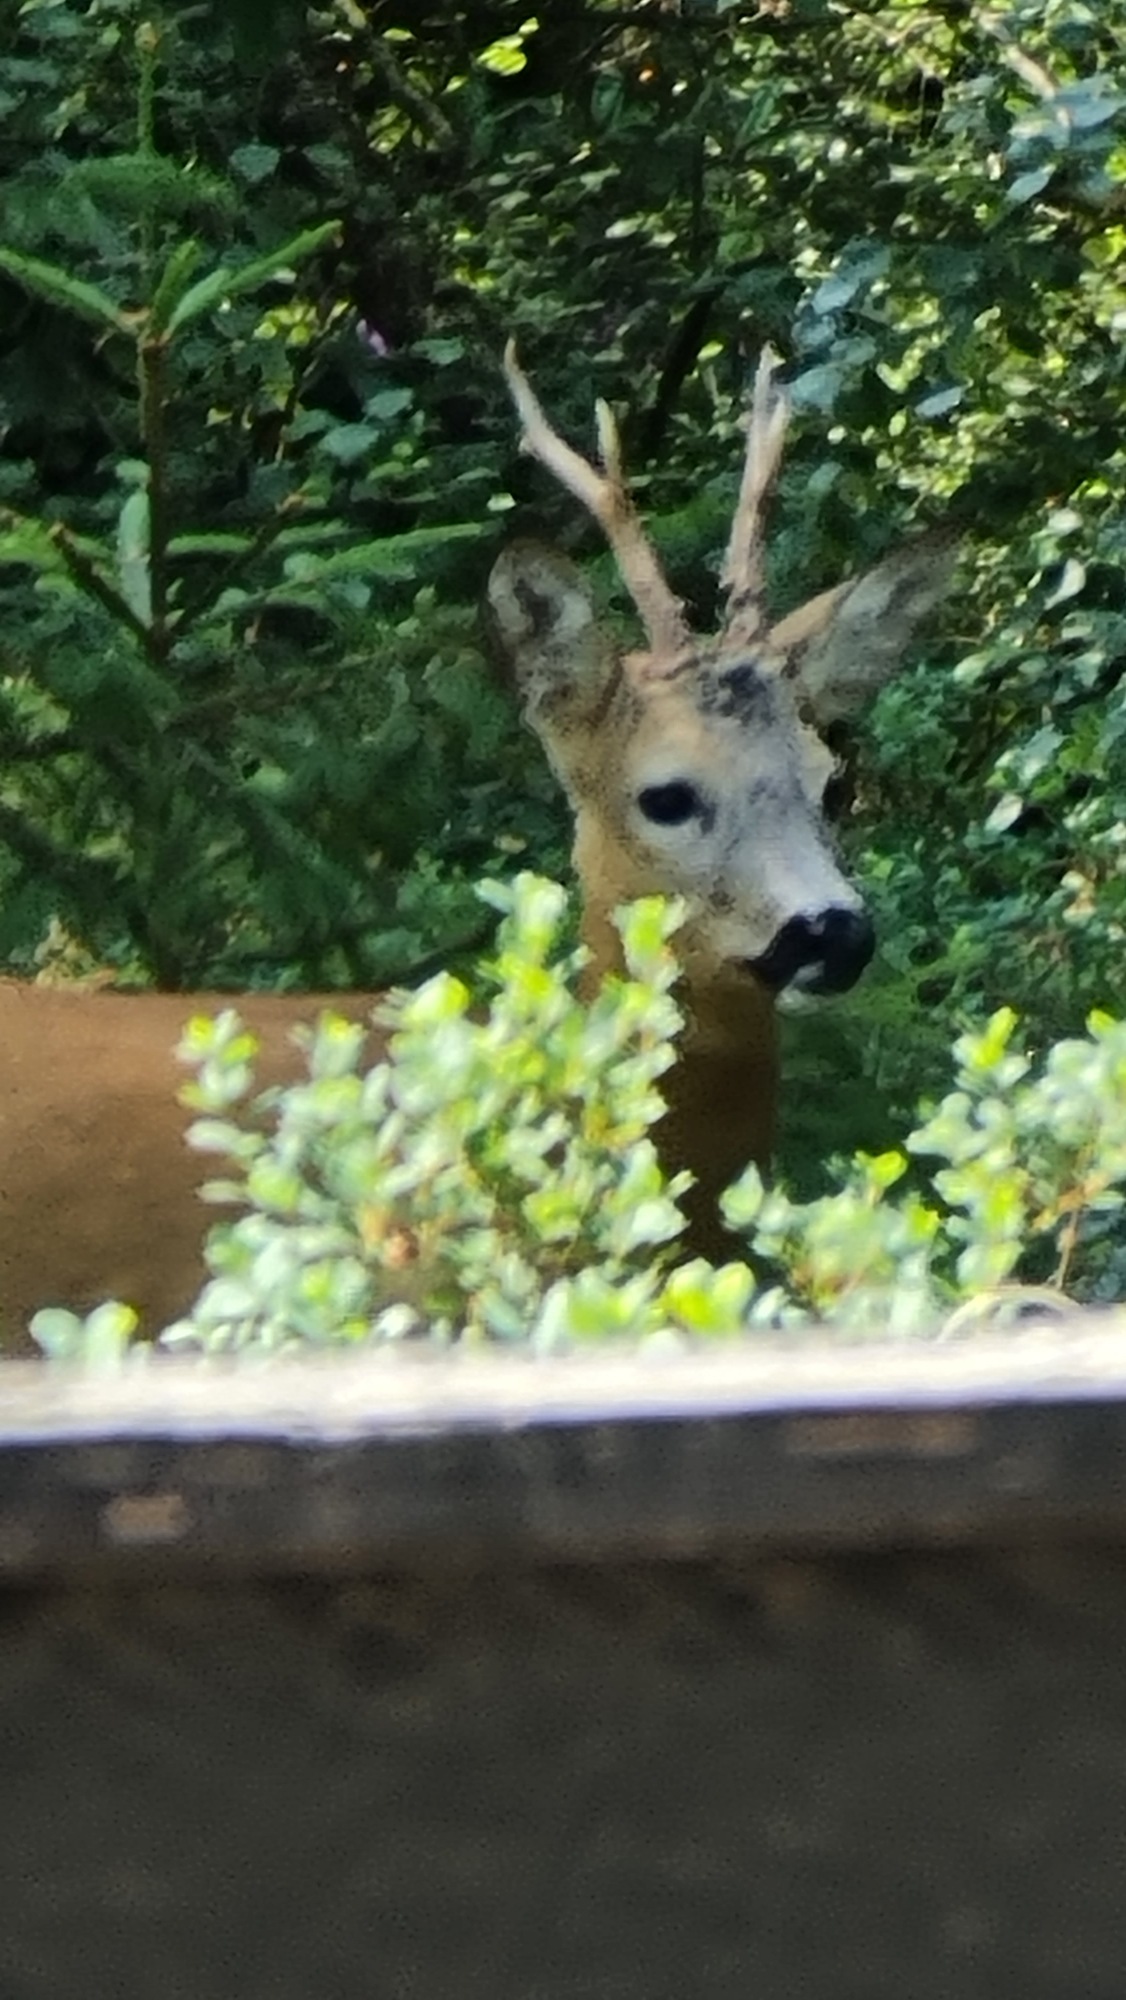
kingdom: Animalia
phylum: Chordata
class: Mammalia
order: Artiodactyla
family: Cervidae
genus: Capreolus
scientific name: Capreolus capreolus
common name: Rådyr
